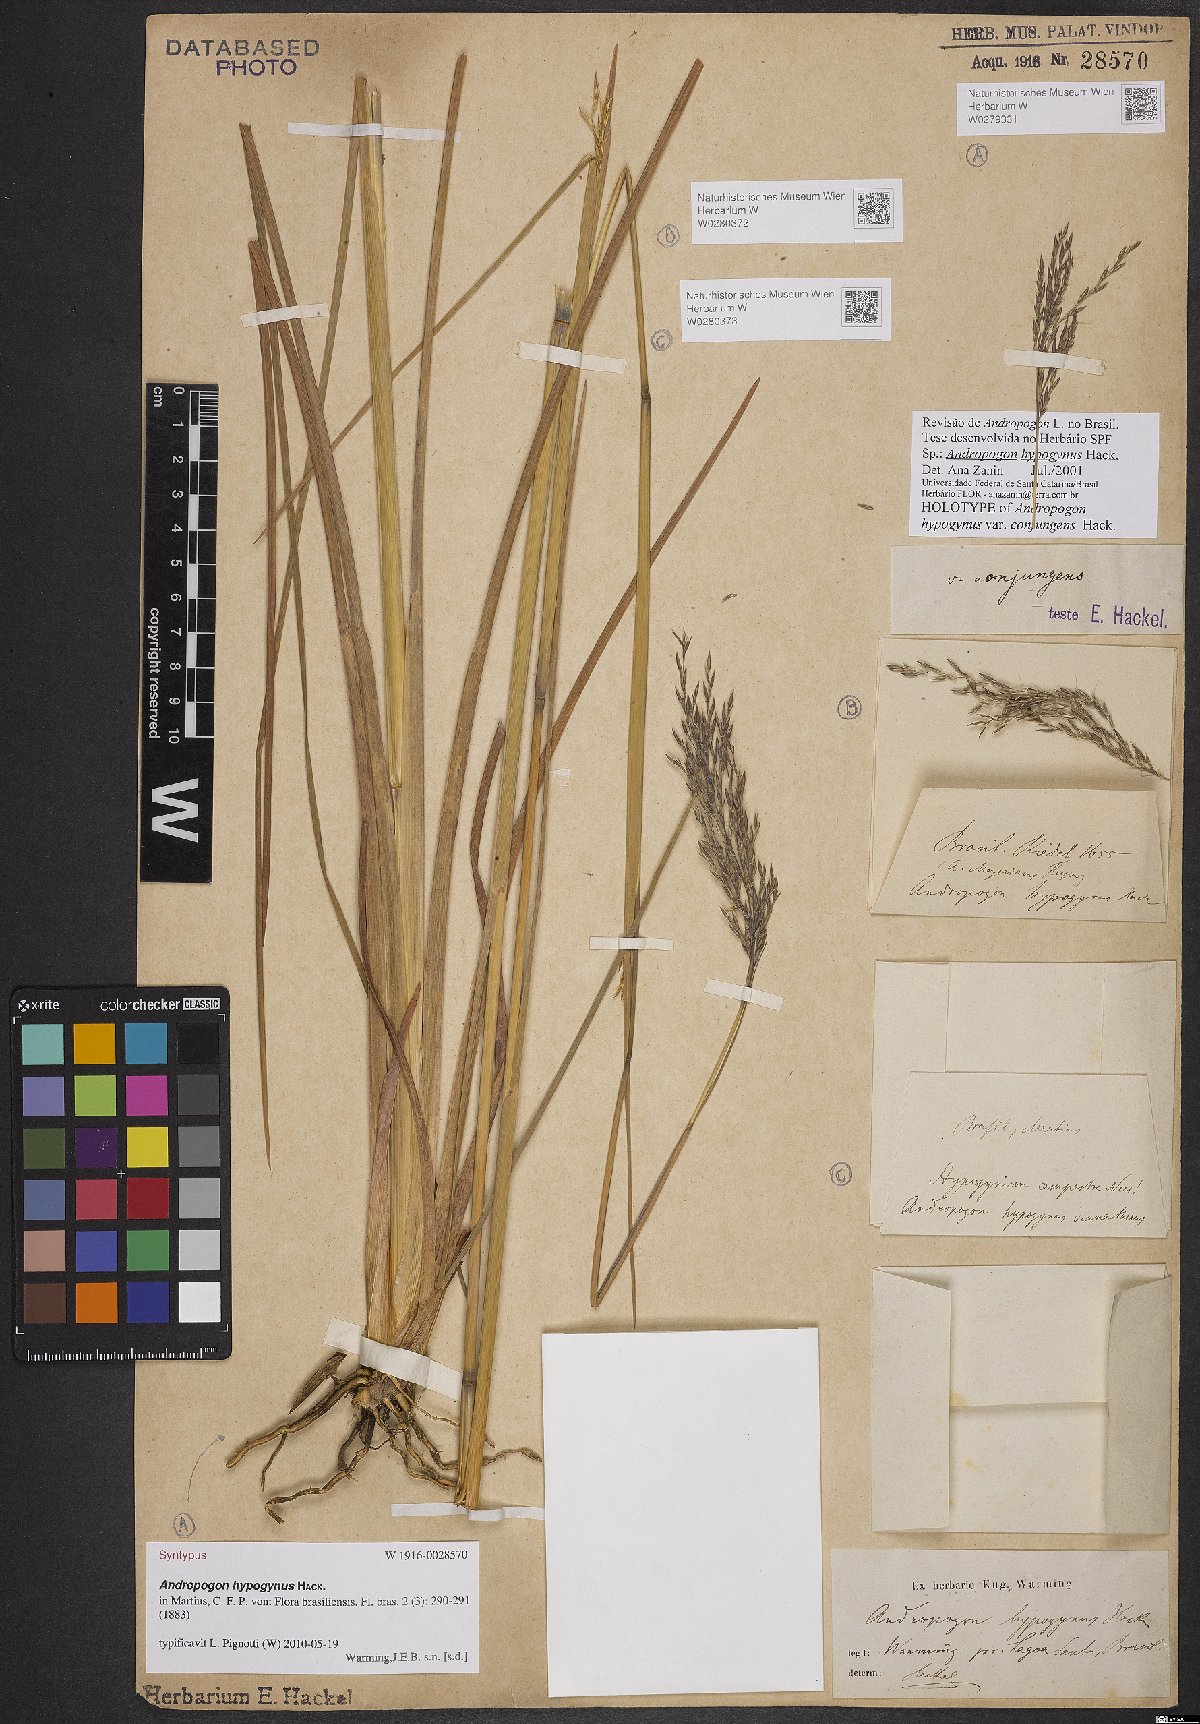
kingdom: Plantae
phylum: Tracheophyta
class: Liliopsida
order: Poales
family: Poaceae
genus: Andropogon
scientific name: Andropogon hypogynus
